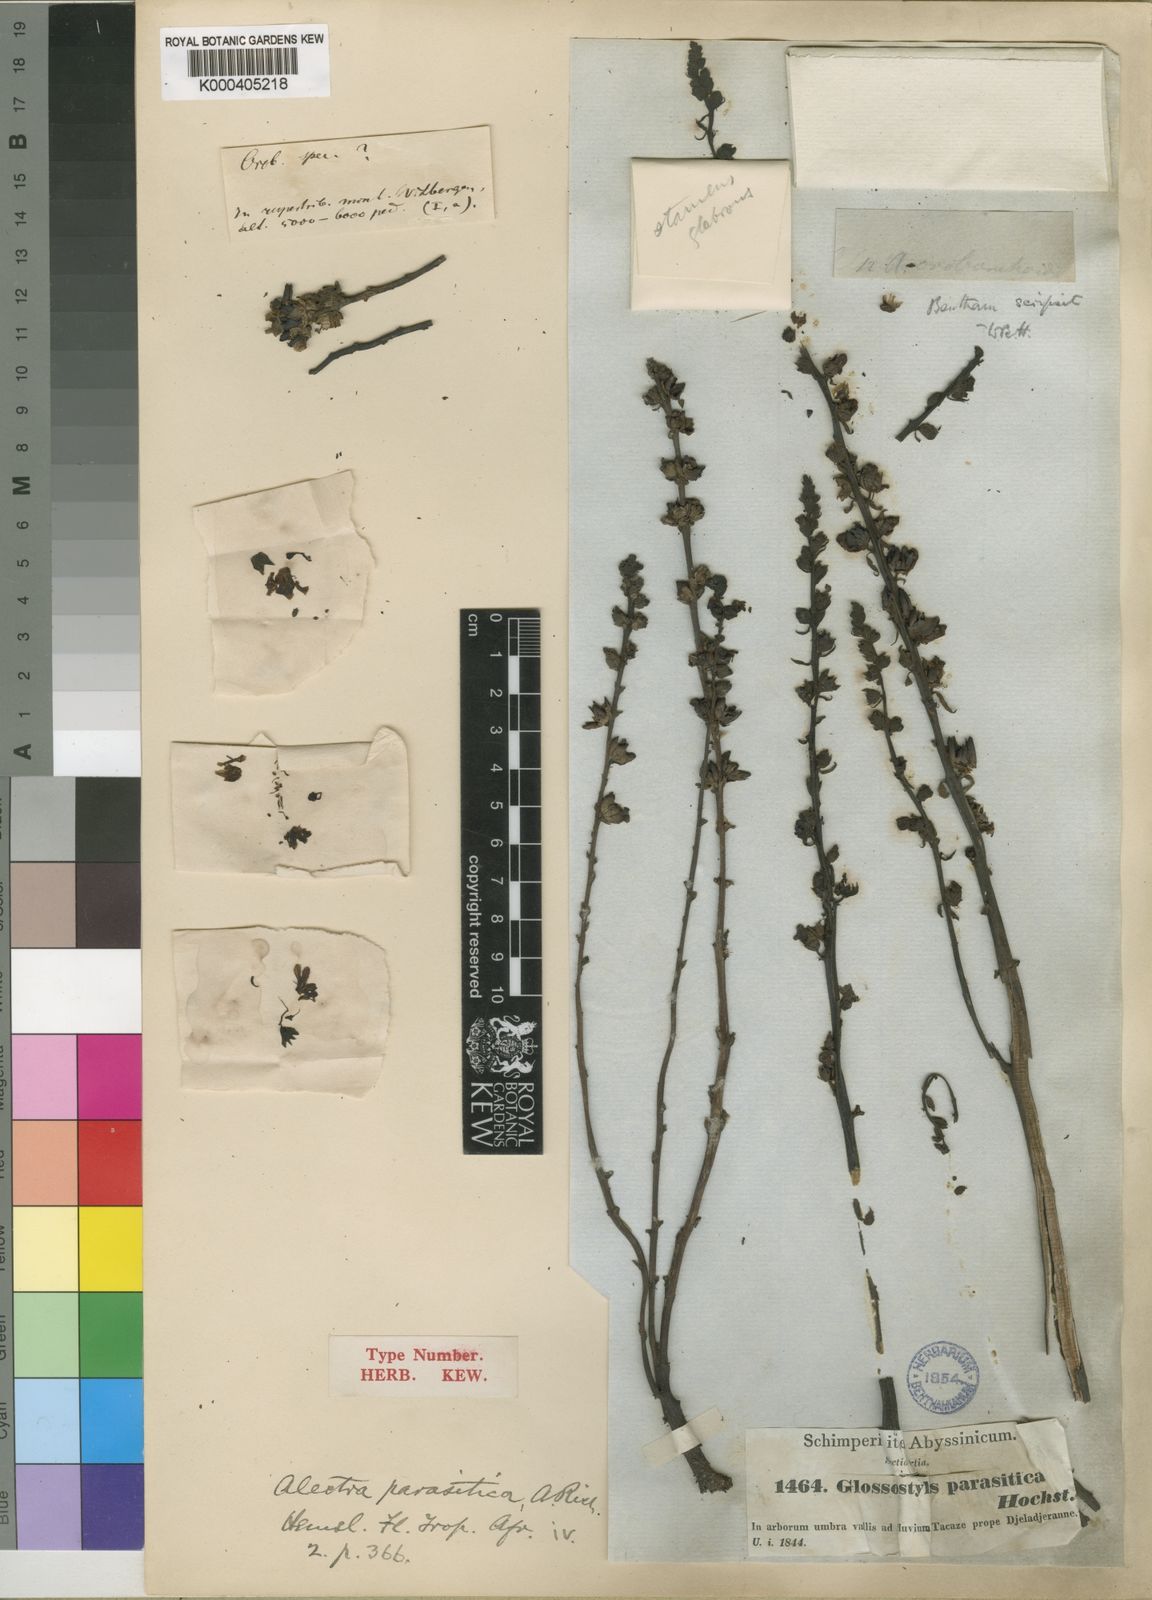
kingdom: Plantae
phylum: Tracheophyta
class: Magnoliopsida
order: Lamiales
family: Orobanchaceae
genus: Alectra
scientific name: Alectra parasitica
